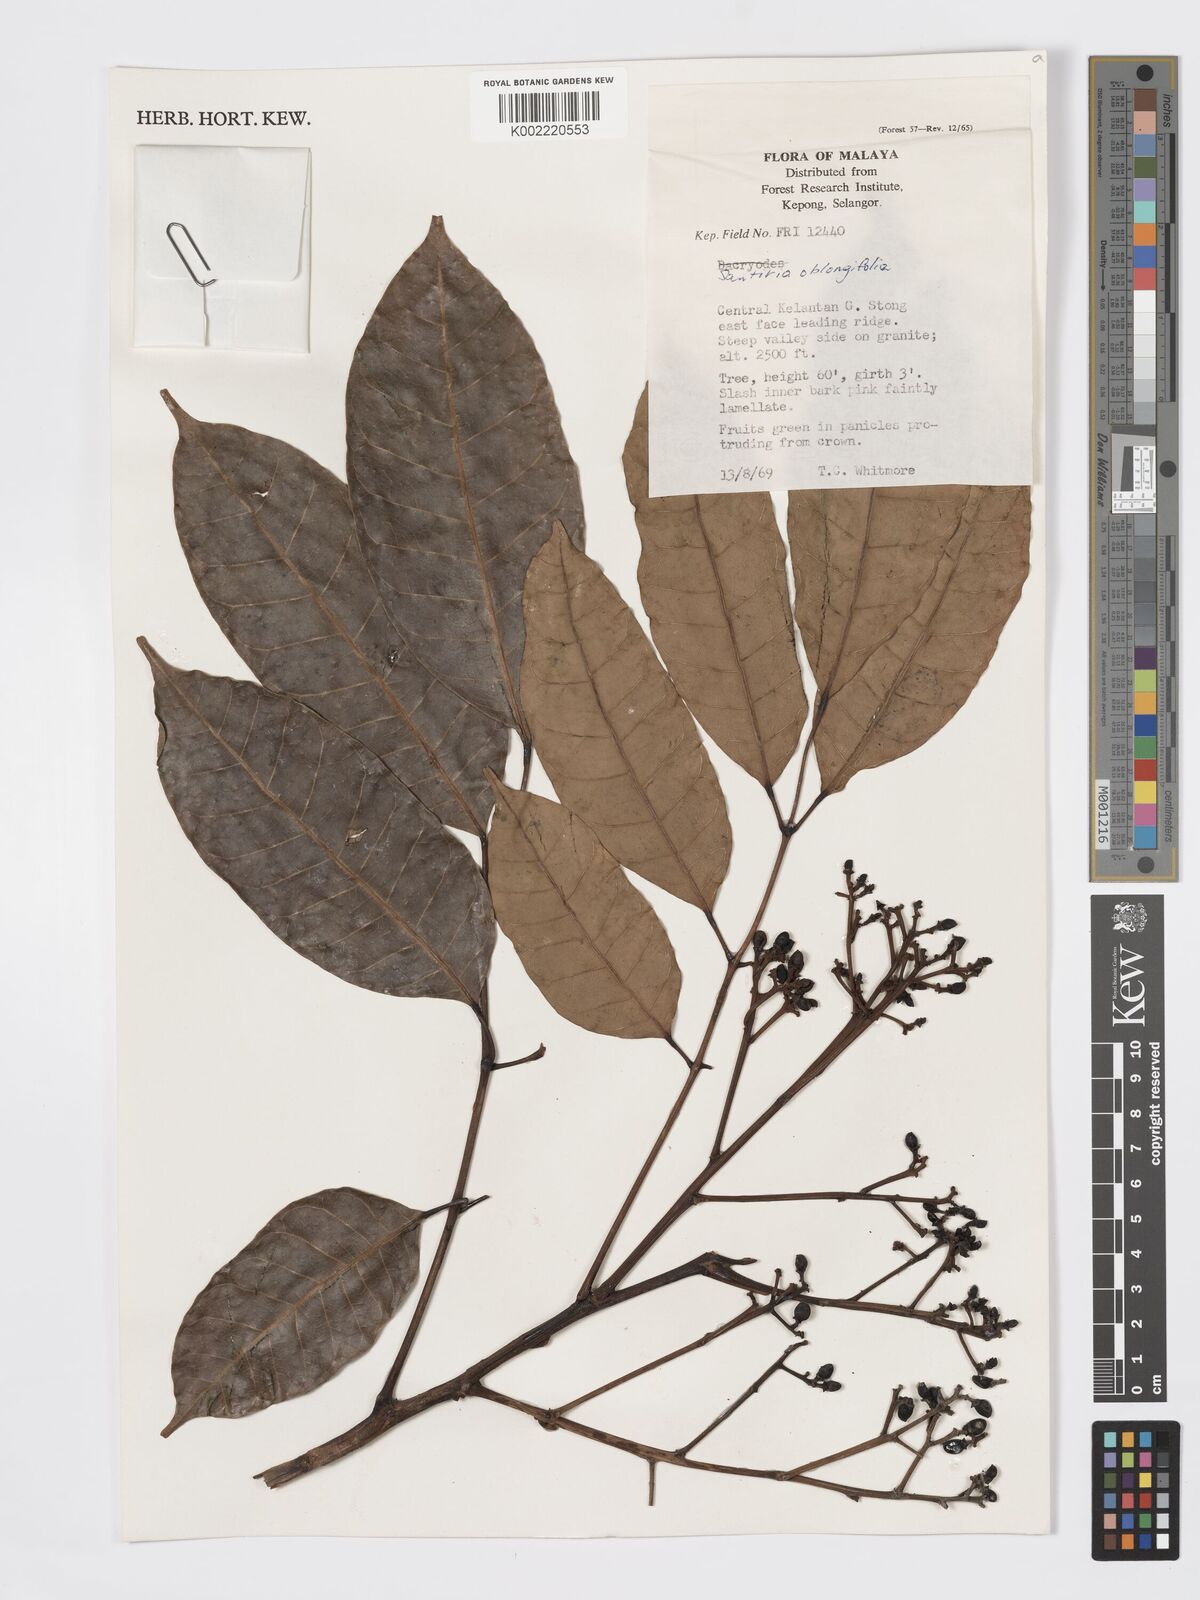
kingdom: Plantae
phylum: Tracheophyta
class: Magnoliopsida
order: Sapindales
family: Burseraceae
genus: Santiria
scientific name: Santiria oblongifolia
